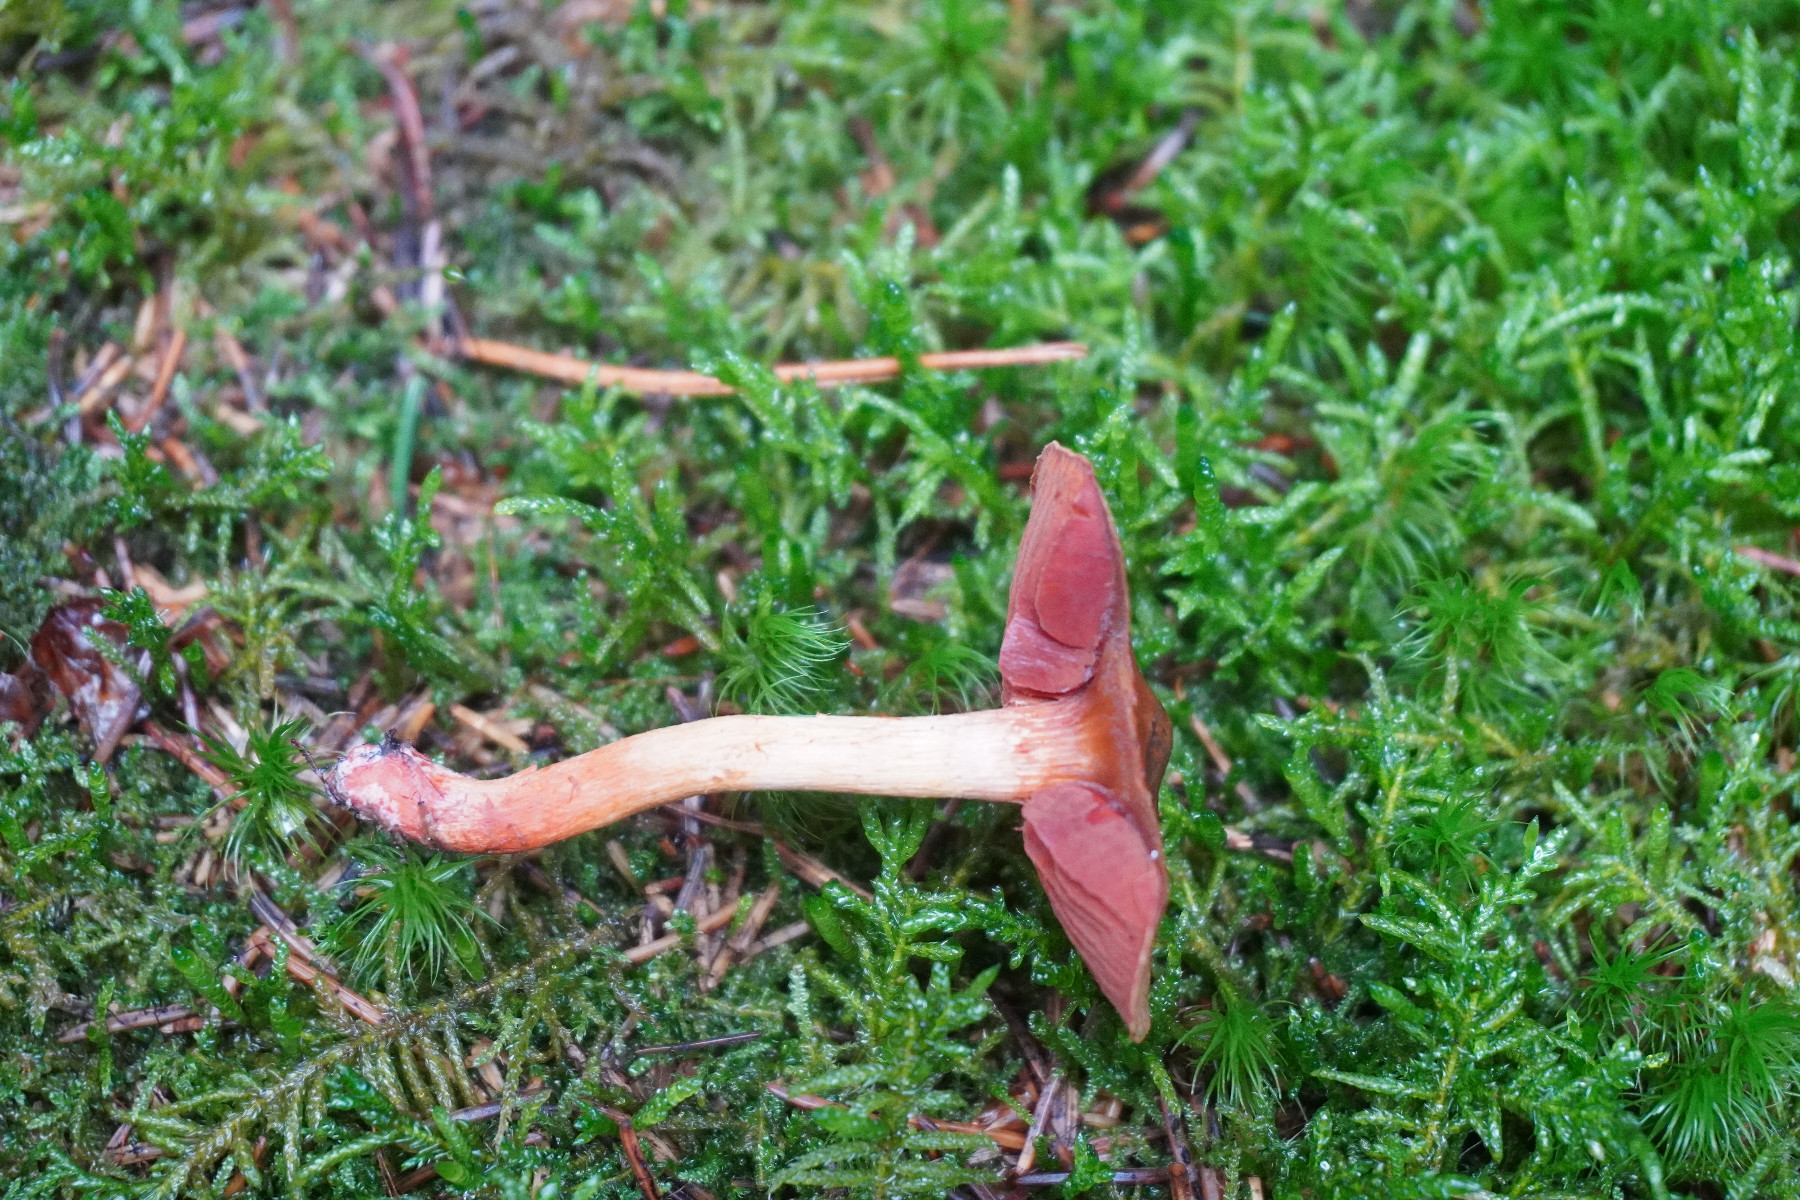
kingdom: Fungi
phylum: Basidiomycota
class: Agaricomycetes
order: Agaricales
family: Cortinariaceae
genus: Cortinarius
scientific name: Cortinarius
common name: cinnoberbladet slørhat
